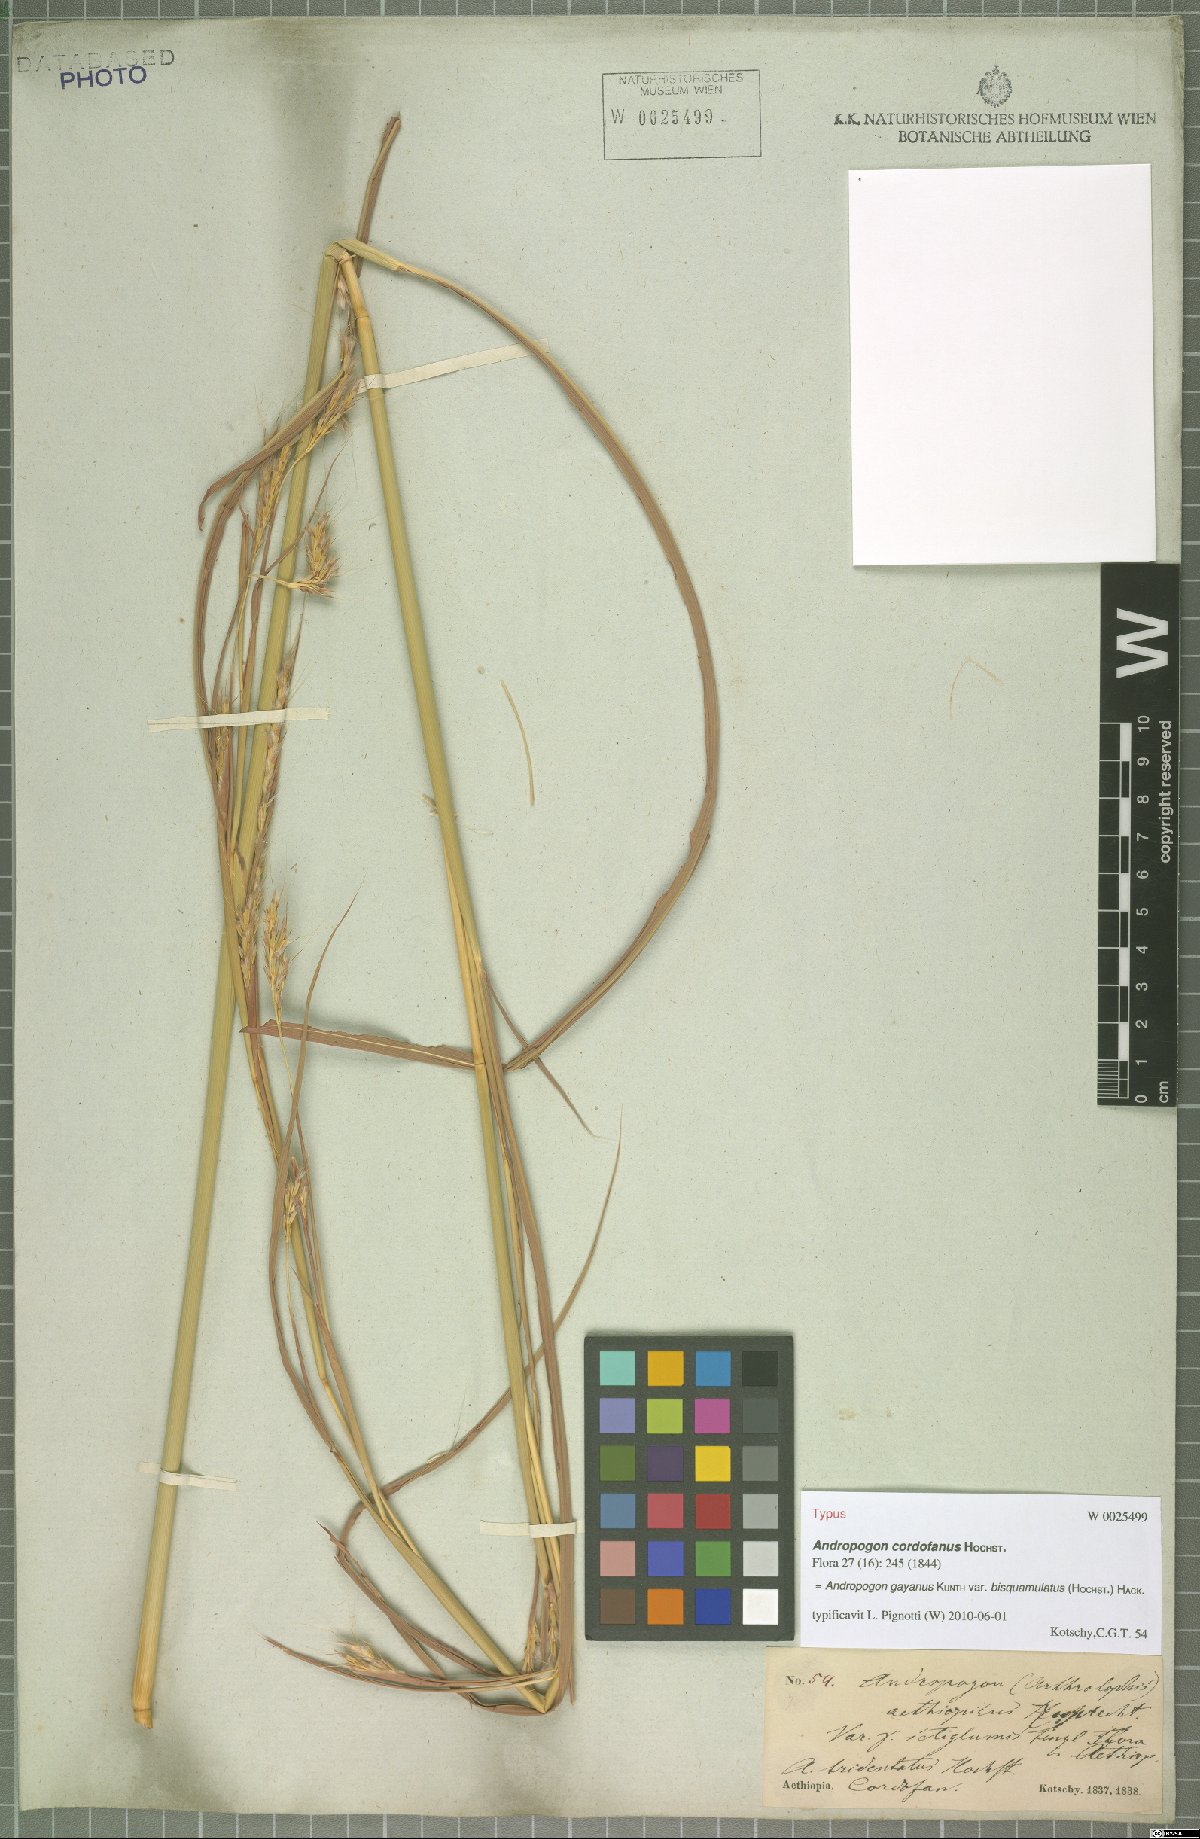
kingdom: Plantae
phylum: Tracheophyta
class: Liliopsida
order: Poales
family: Poaceae
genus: Andropogon
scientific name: Andropogon gayanus
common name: Tambuki grass
